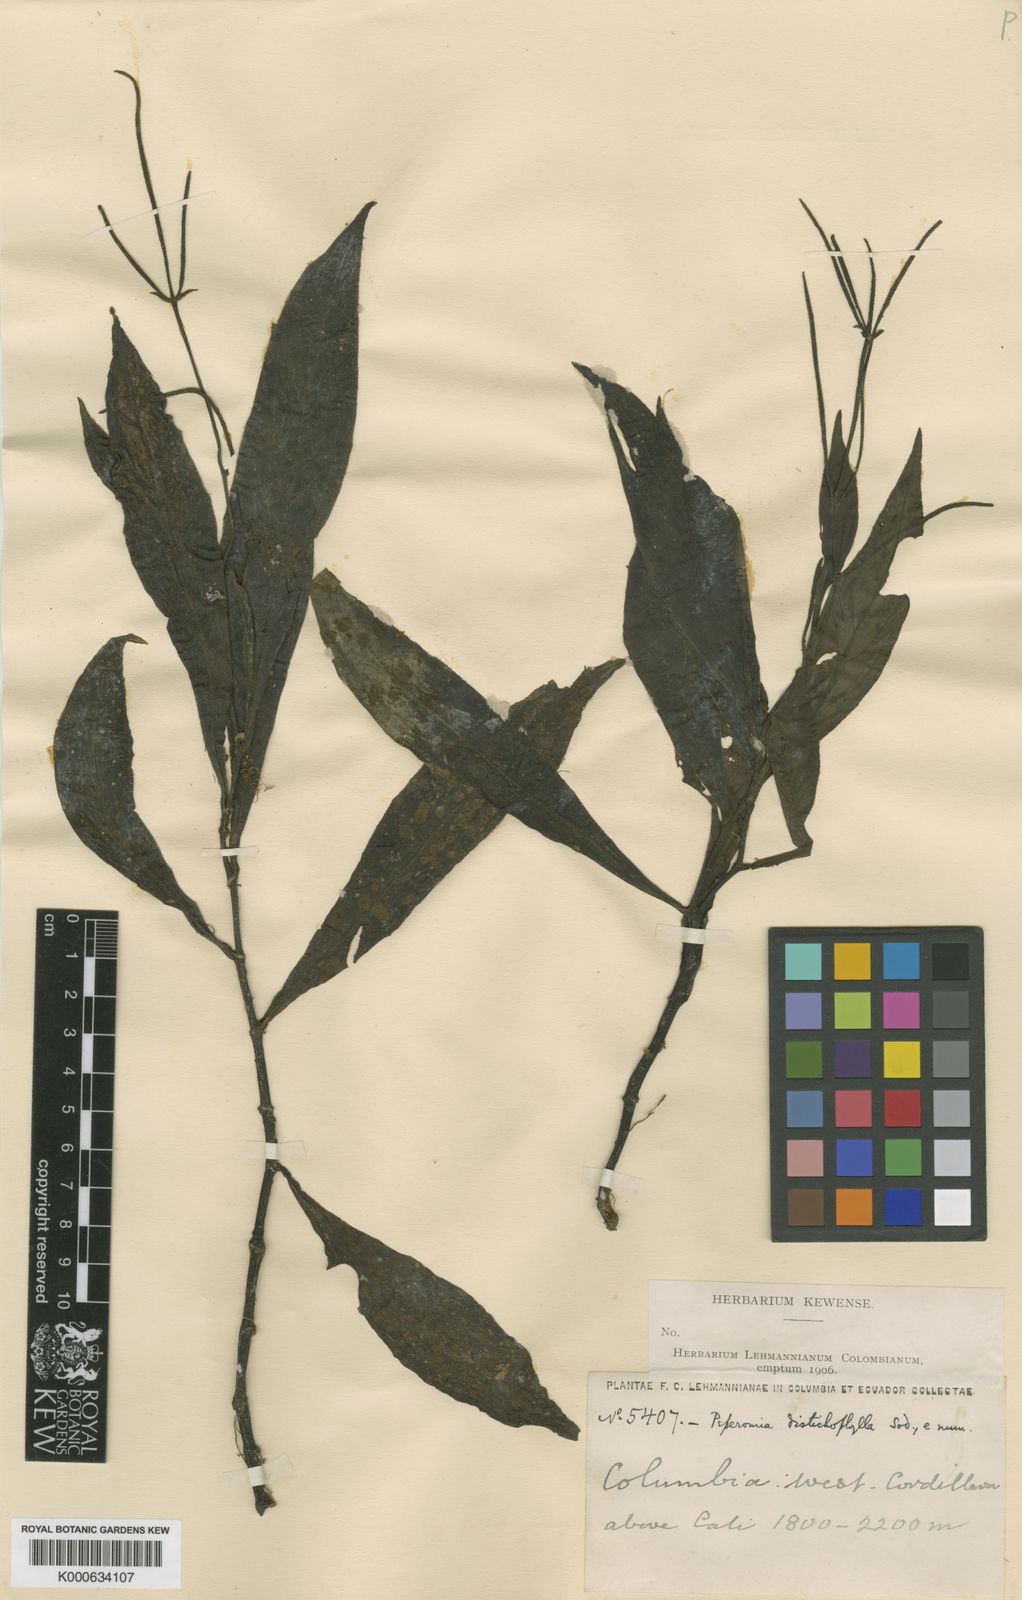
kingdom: Plantae
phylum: Tracheophyta
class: Magnoliopsida
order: Piperales
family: Piperaceae
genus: Peperomia
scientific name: Peperomia lancifolia
